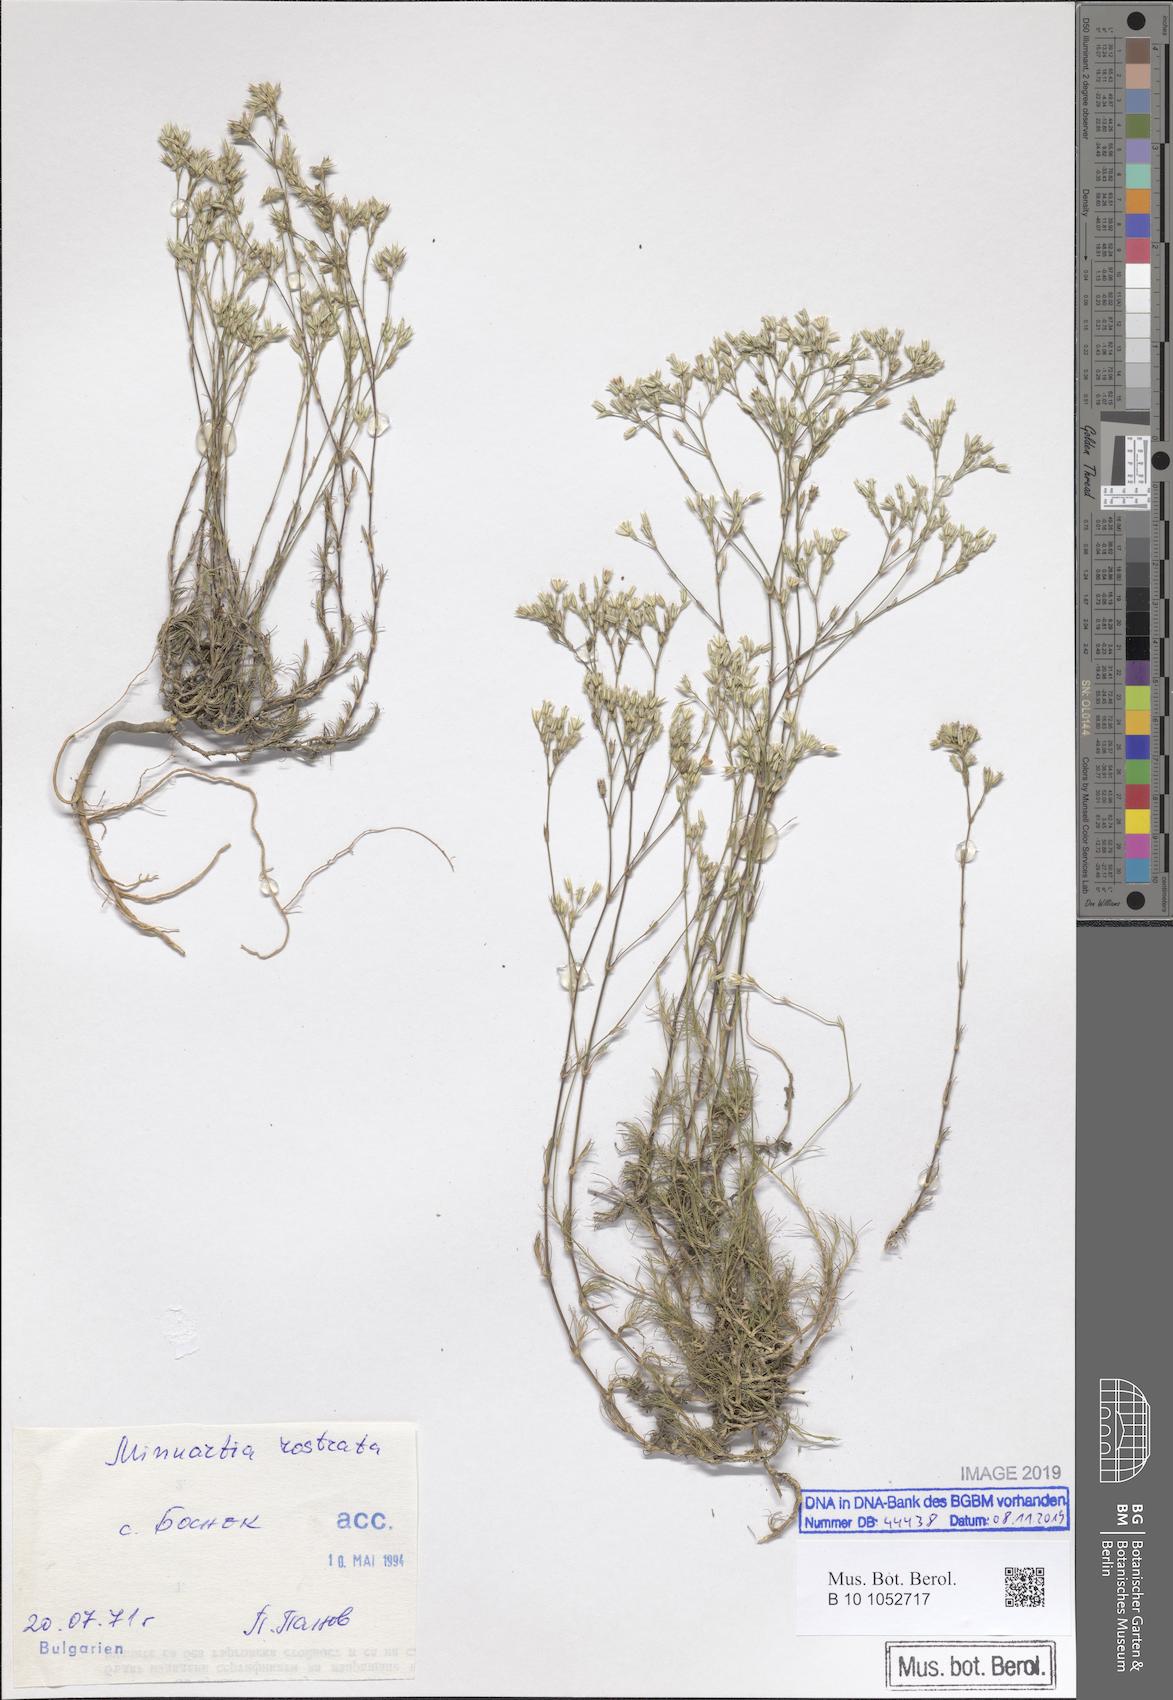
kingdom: Plantae
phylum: Tracheophyta
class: Magnoliopsida
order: Caryophyllales
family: Caryophyllaceae
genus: Minuartia
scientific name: Minuartia rostrata
